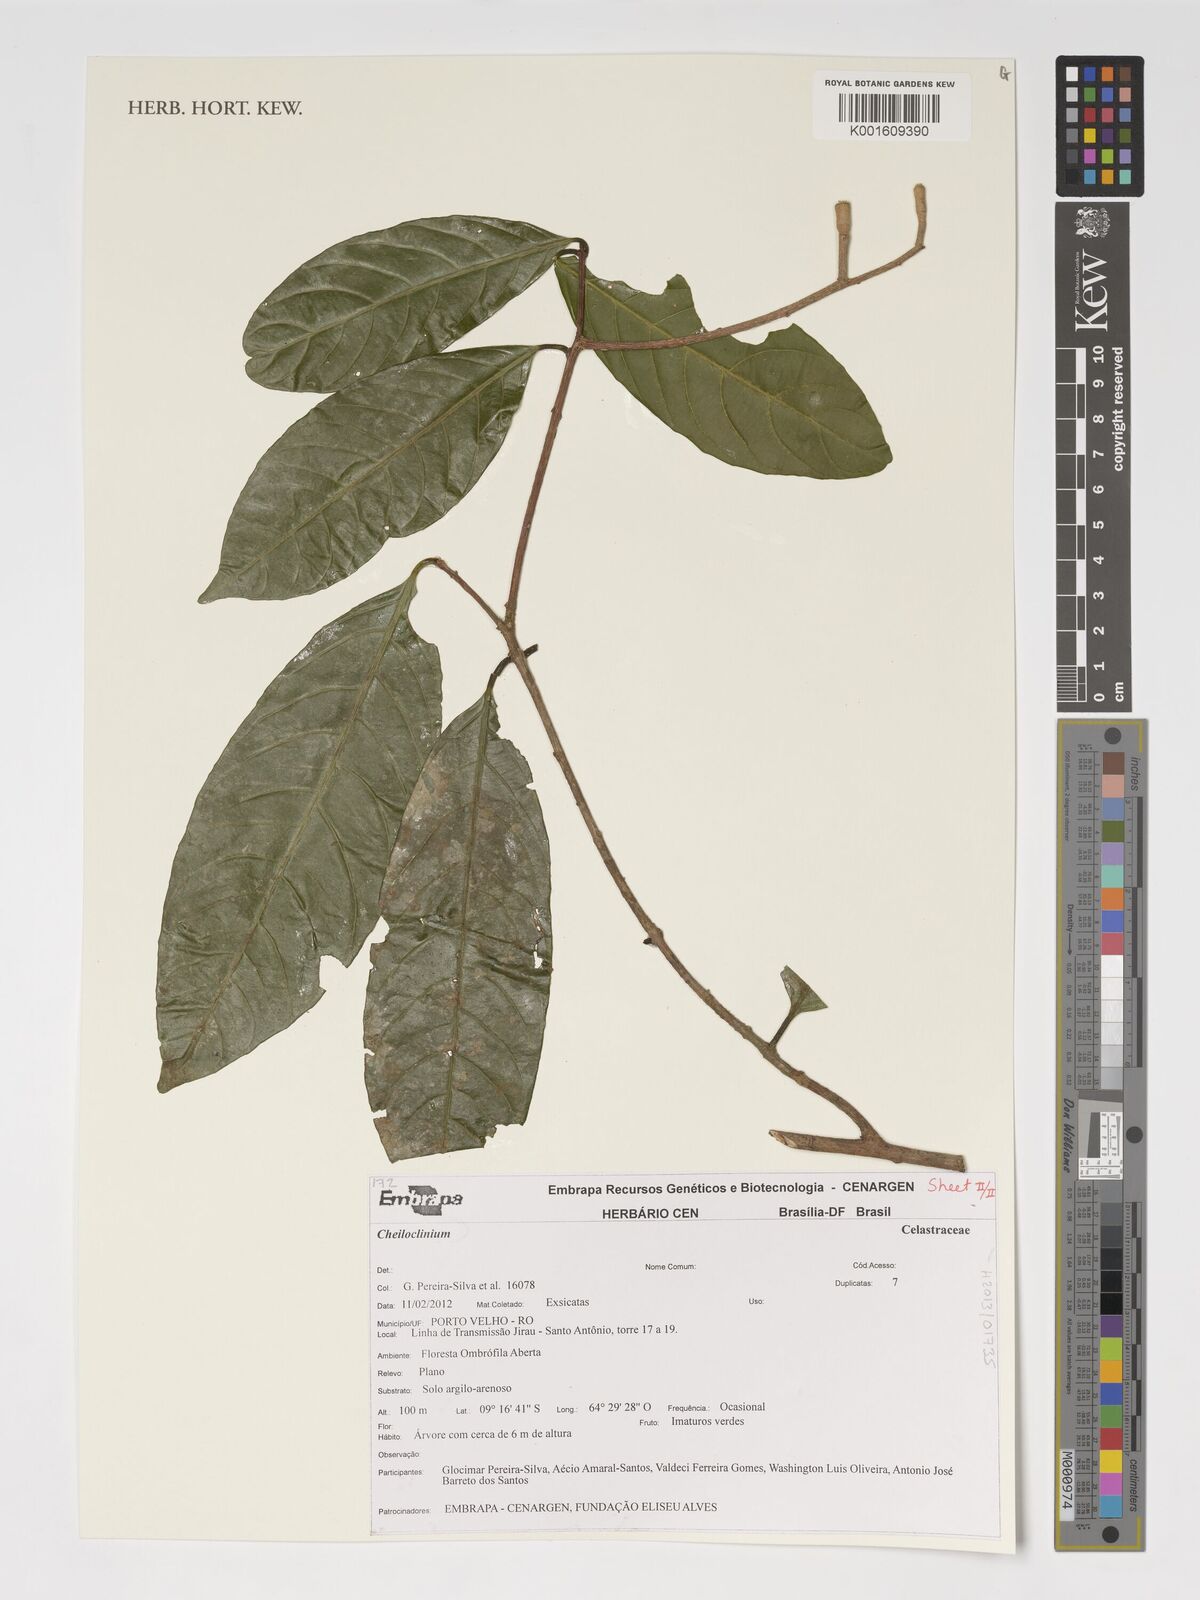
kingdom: Plantae
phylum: Tracheophyta
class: Magnoliopsida
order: Celastrales
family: Celastraceae
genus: Cheiloclinium
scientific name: Cheiloclinium
